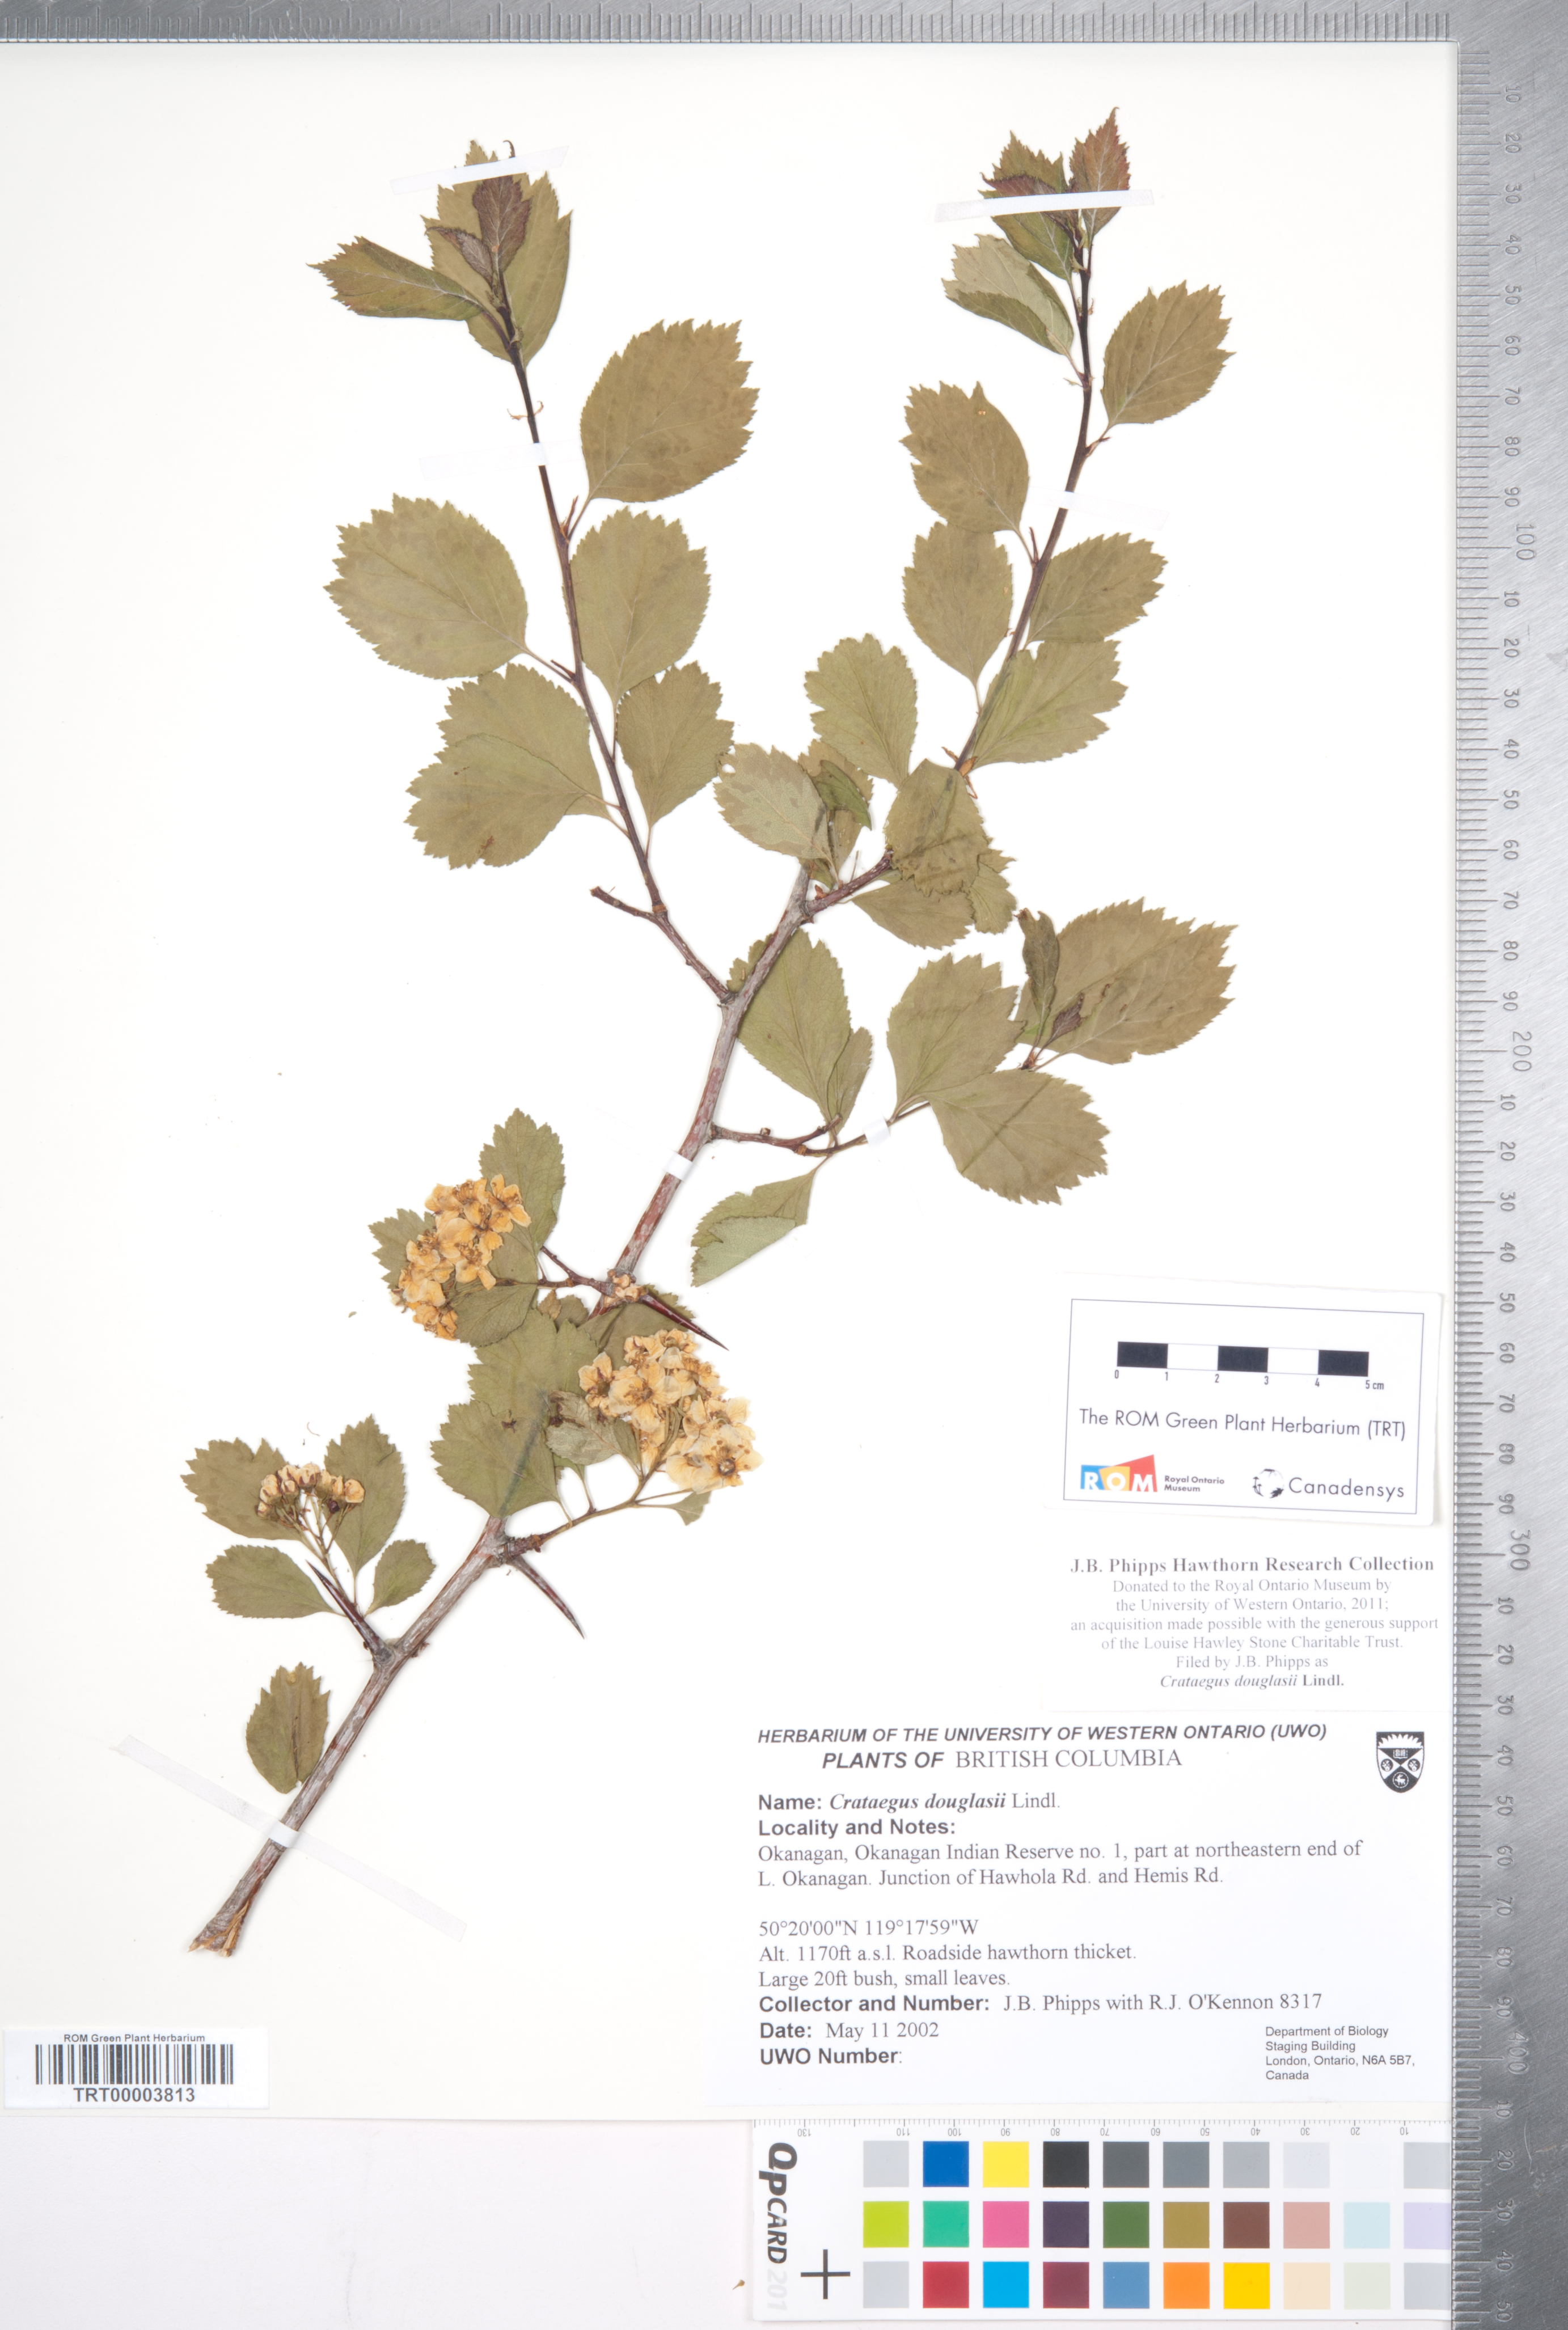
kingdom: Plantae
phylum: Tracheophyta
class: Magnoliopsida
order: Rosales
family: Rosaceae
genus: Crataegus
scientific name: Crataegus douglasii
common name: Black hawthorn
